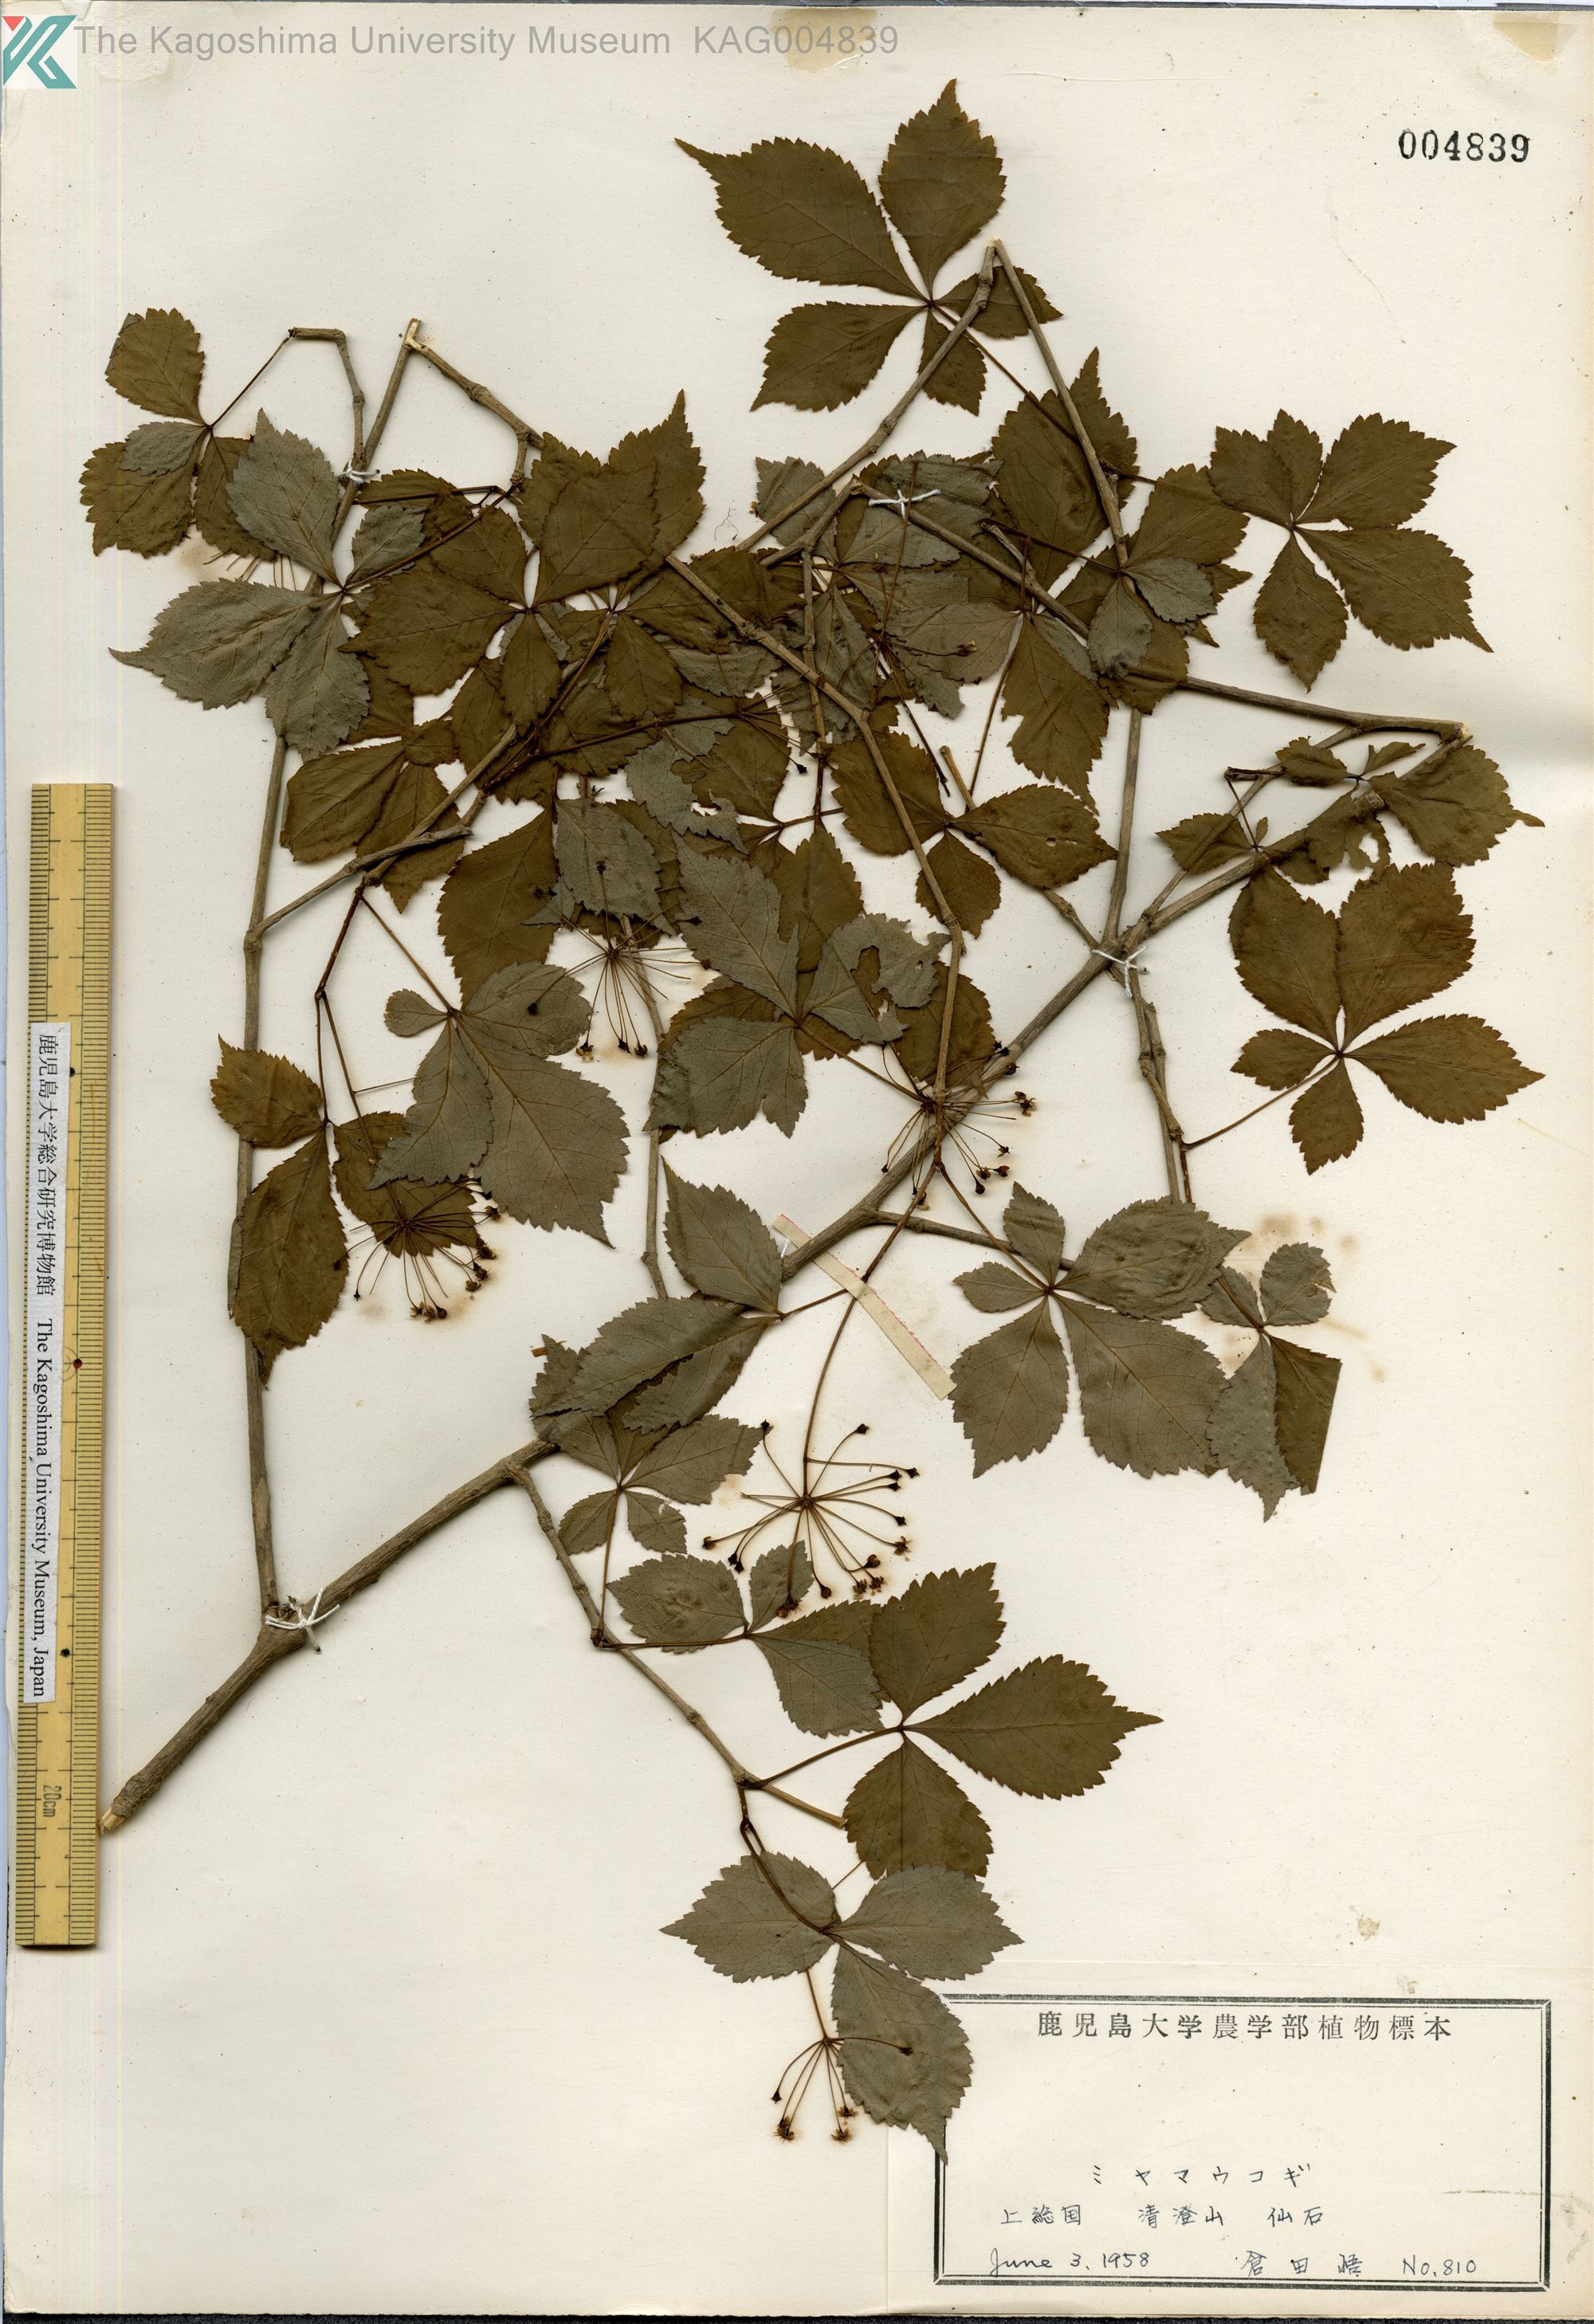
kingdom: Plantae
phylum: Tracheophyta
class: Magnoliopsida
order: Apiales
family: Araliaceae
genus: Eleutherococcus
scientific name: Eleutherococcus trichodon
